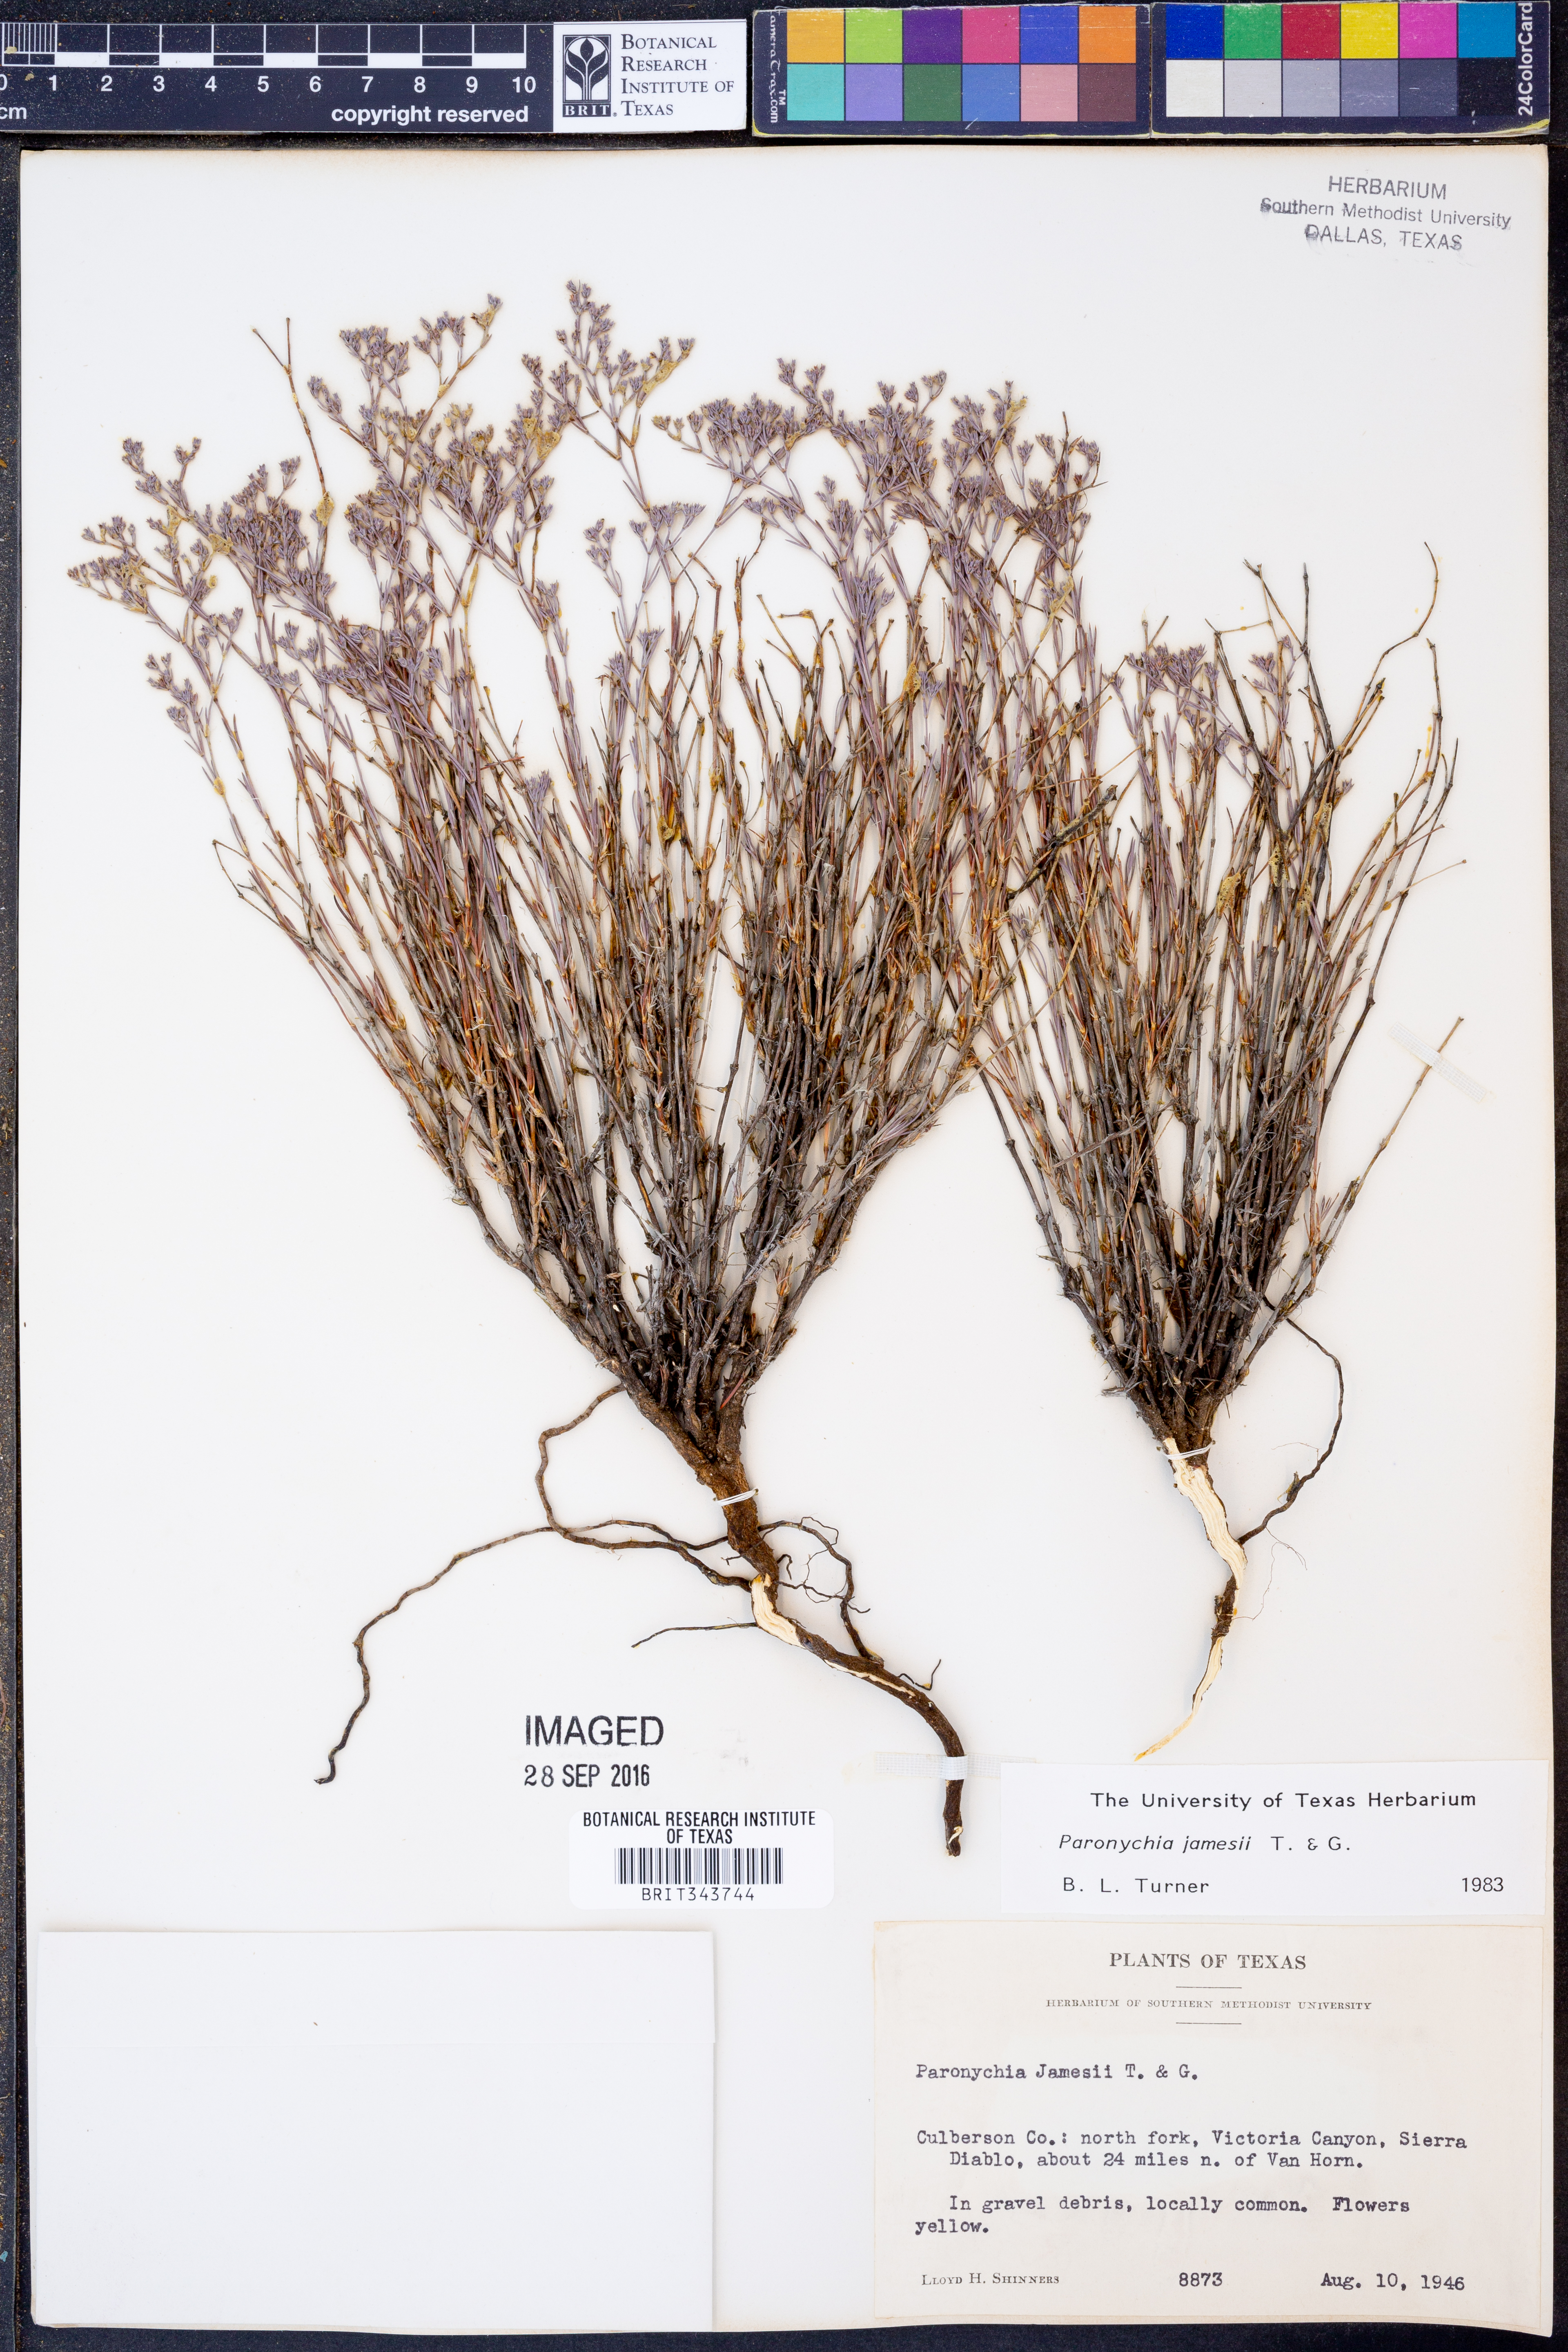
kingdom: Plantae
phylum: Tracheophyta
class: Magnoliopsida
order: Caryophyllales
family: Caryophyllaceae
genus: Paronychia
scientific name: Paronychia jamesii
